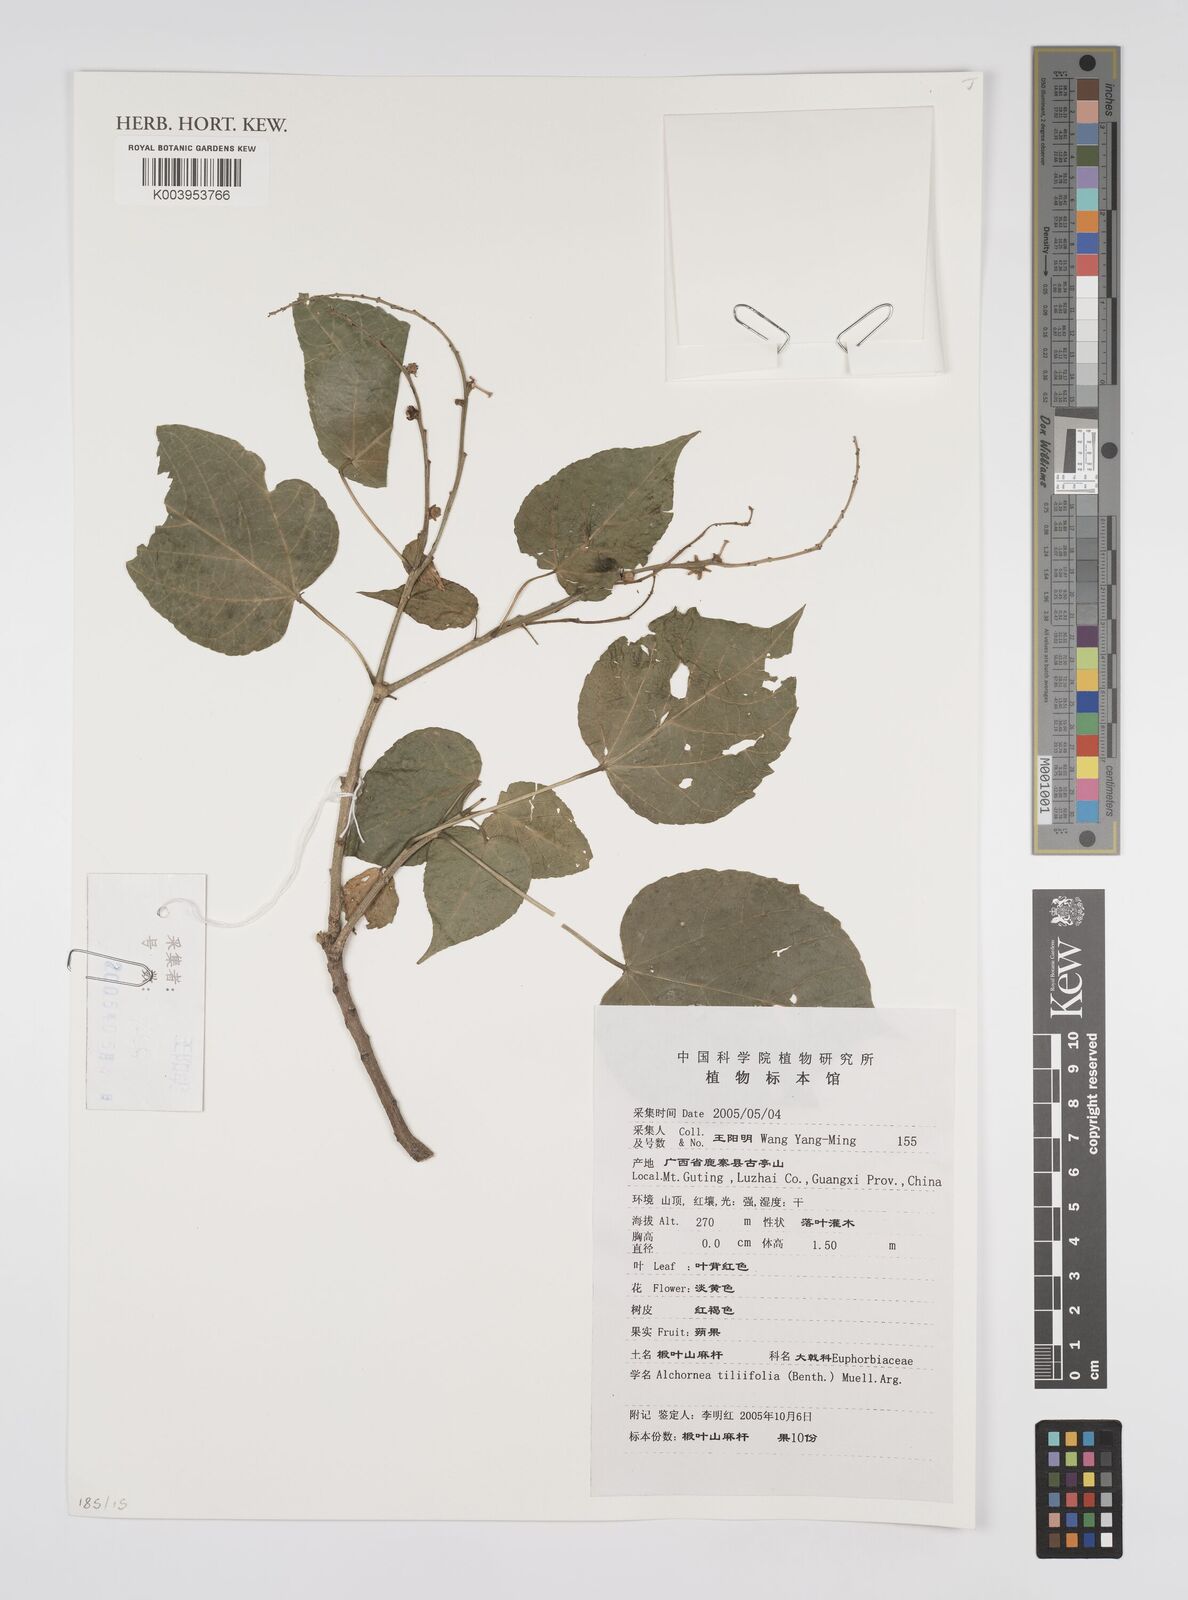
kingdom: Plantae
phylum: Tracheophyta
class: Magnoliopsida
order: Malpighiales
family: Euphorbiaceae
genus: Alchornea
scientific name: Alchornea tiliifolia
